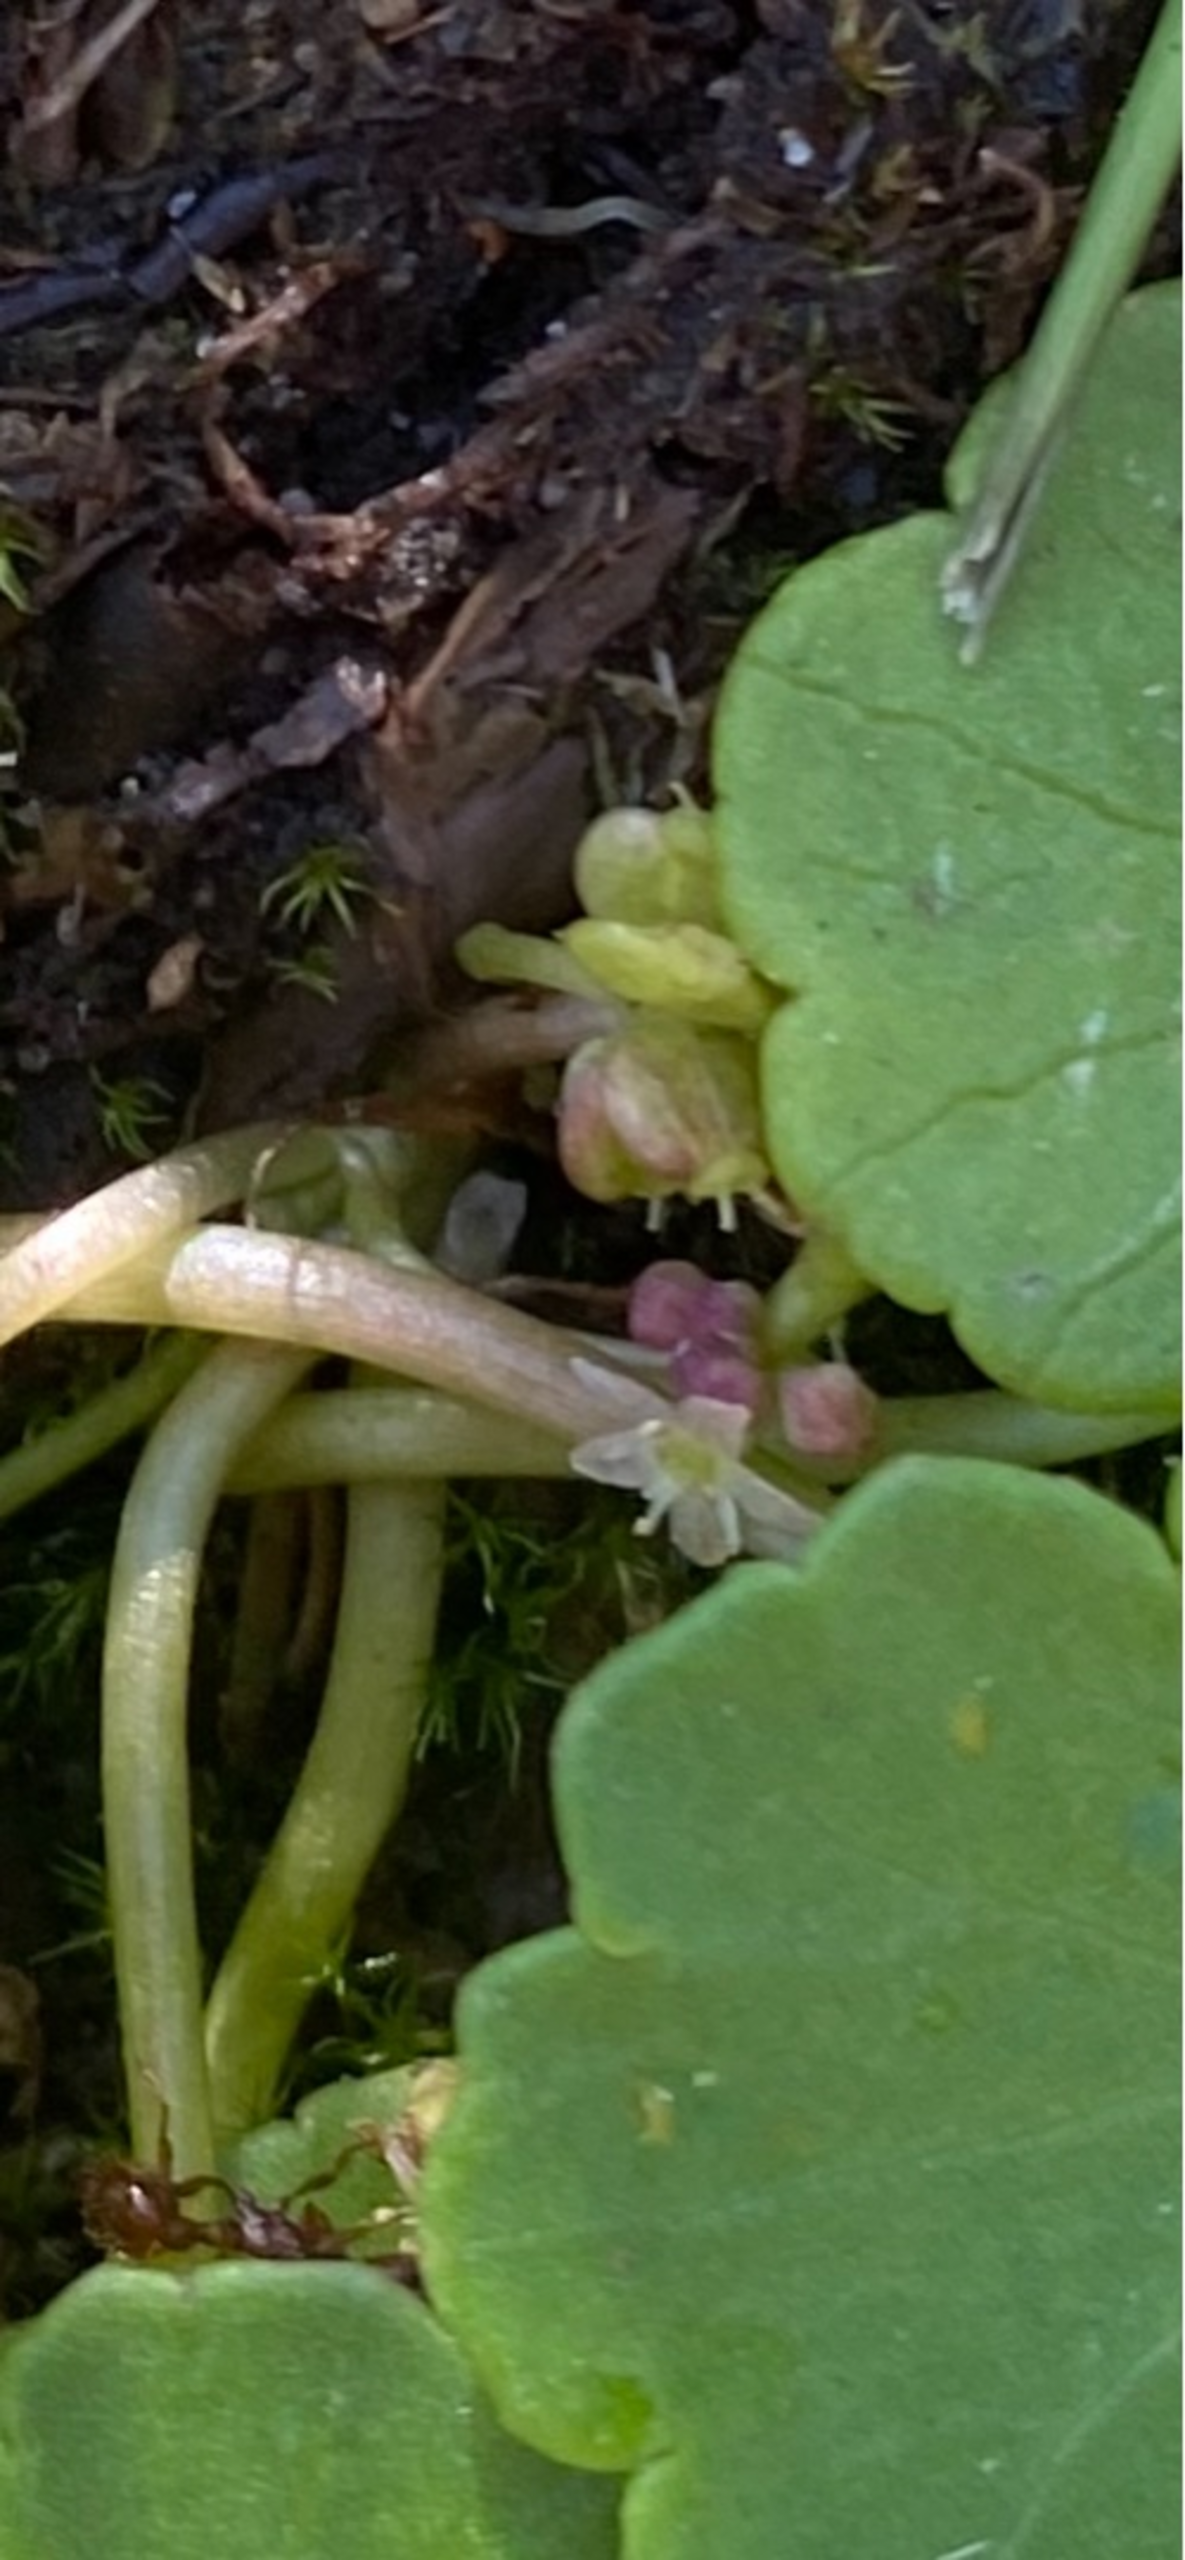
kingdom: Plantae
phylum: Tracheophyta
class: Magnoliopsida
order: Apiales
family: Araliaceae
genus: Hydrocotyle
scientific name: Hydrocotyle vulgaris
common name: Vandnavle
